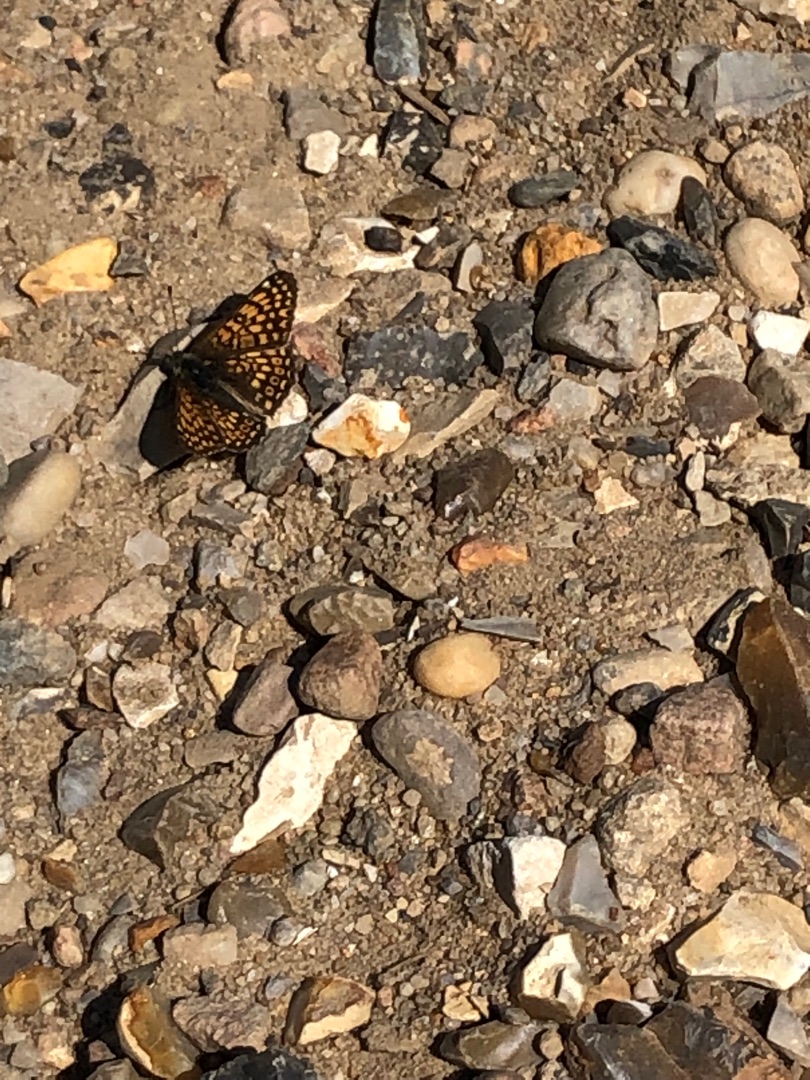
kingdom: Animalia
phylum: Arthropoda
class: Insecta
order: Lepidoptera
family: Nymphalidae
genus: Melitaea
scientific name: Melitaea cinxia
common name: Okkergul pletvinge
